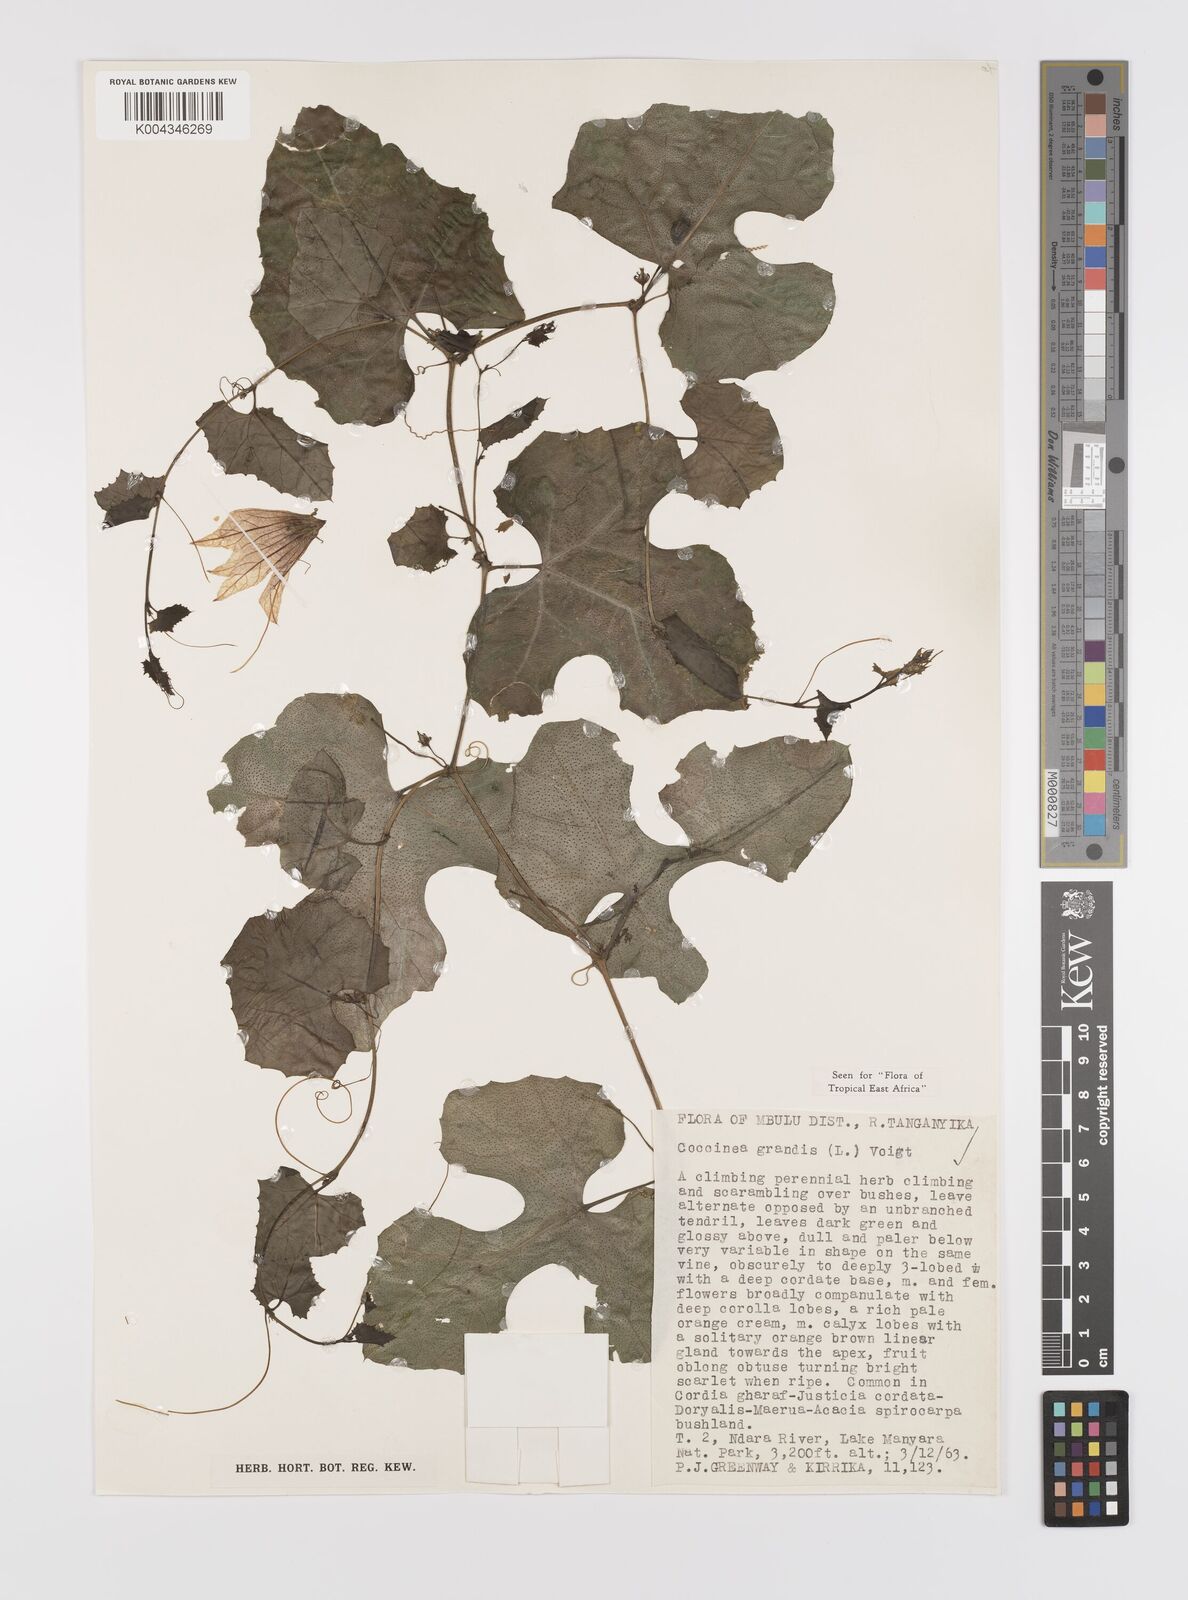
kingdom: Plantae
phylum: Tracheophyta
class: Magnoliopsida
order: Cucurbitales
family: Cucurbitaceae
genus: Coccinia
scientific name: Coccinia grandis
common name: Ivy gourd
